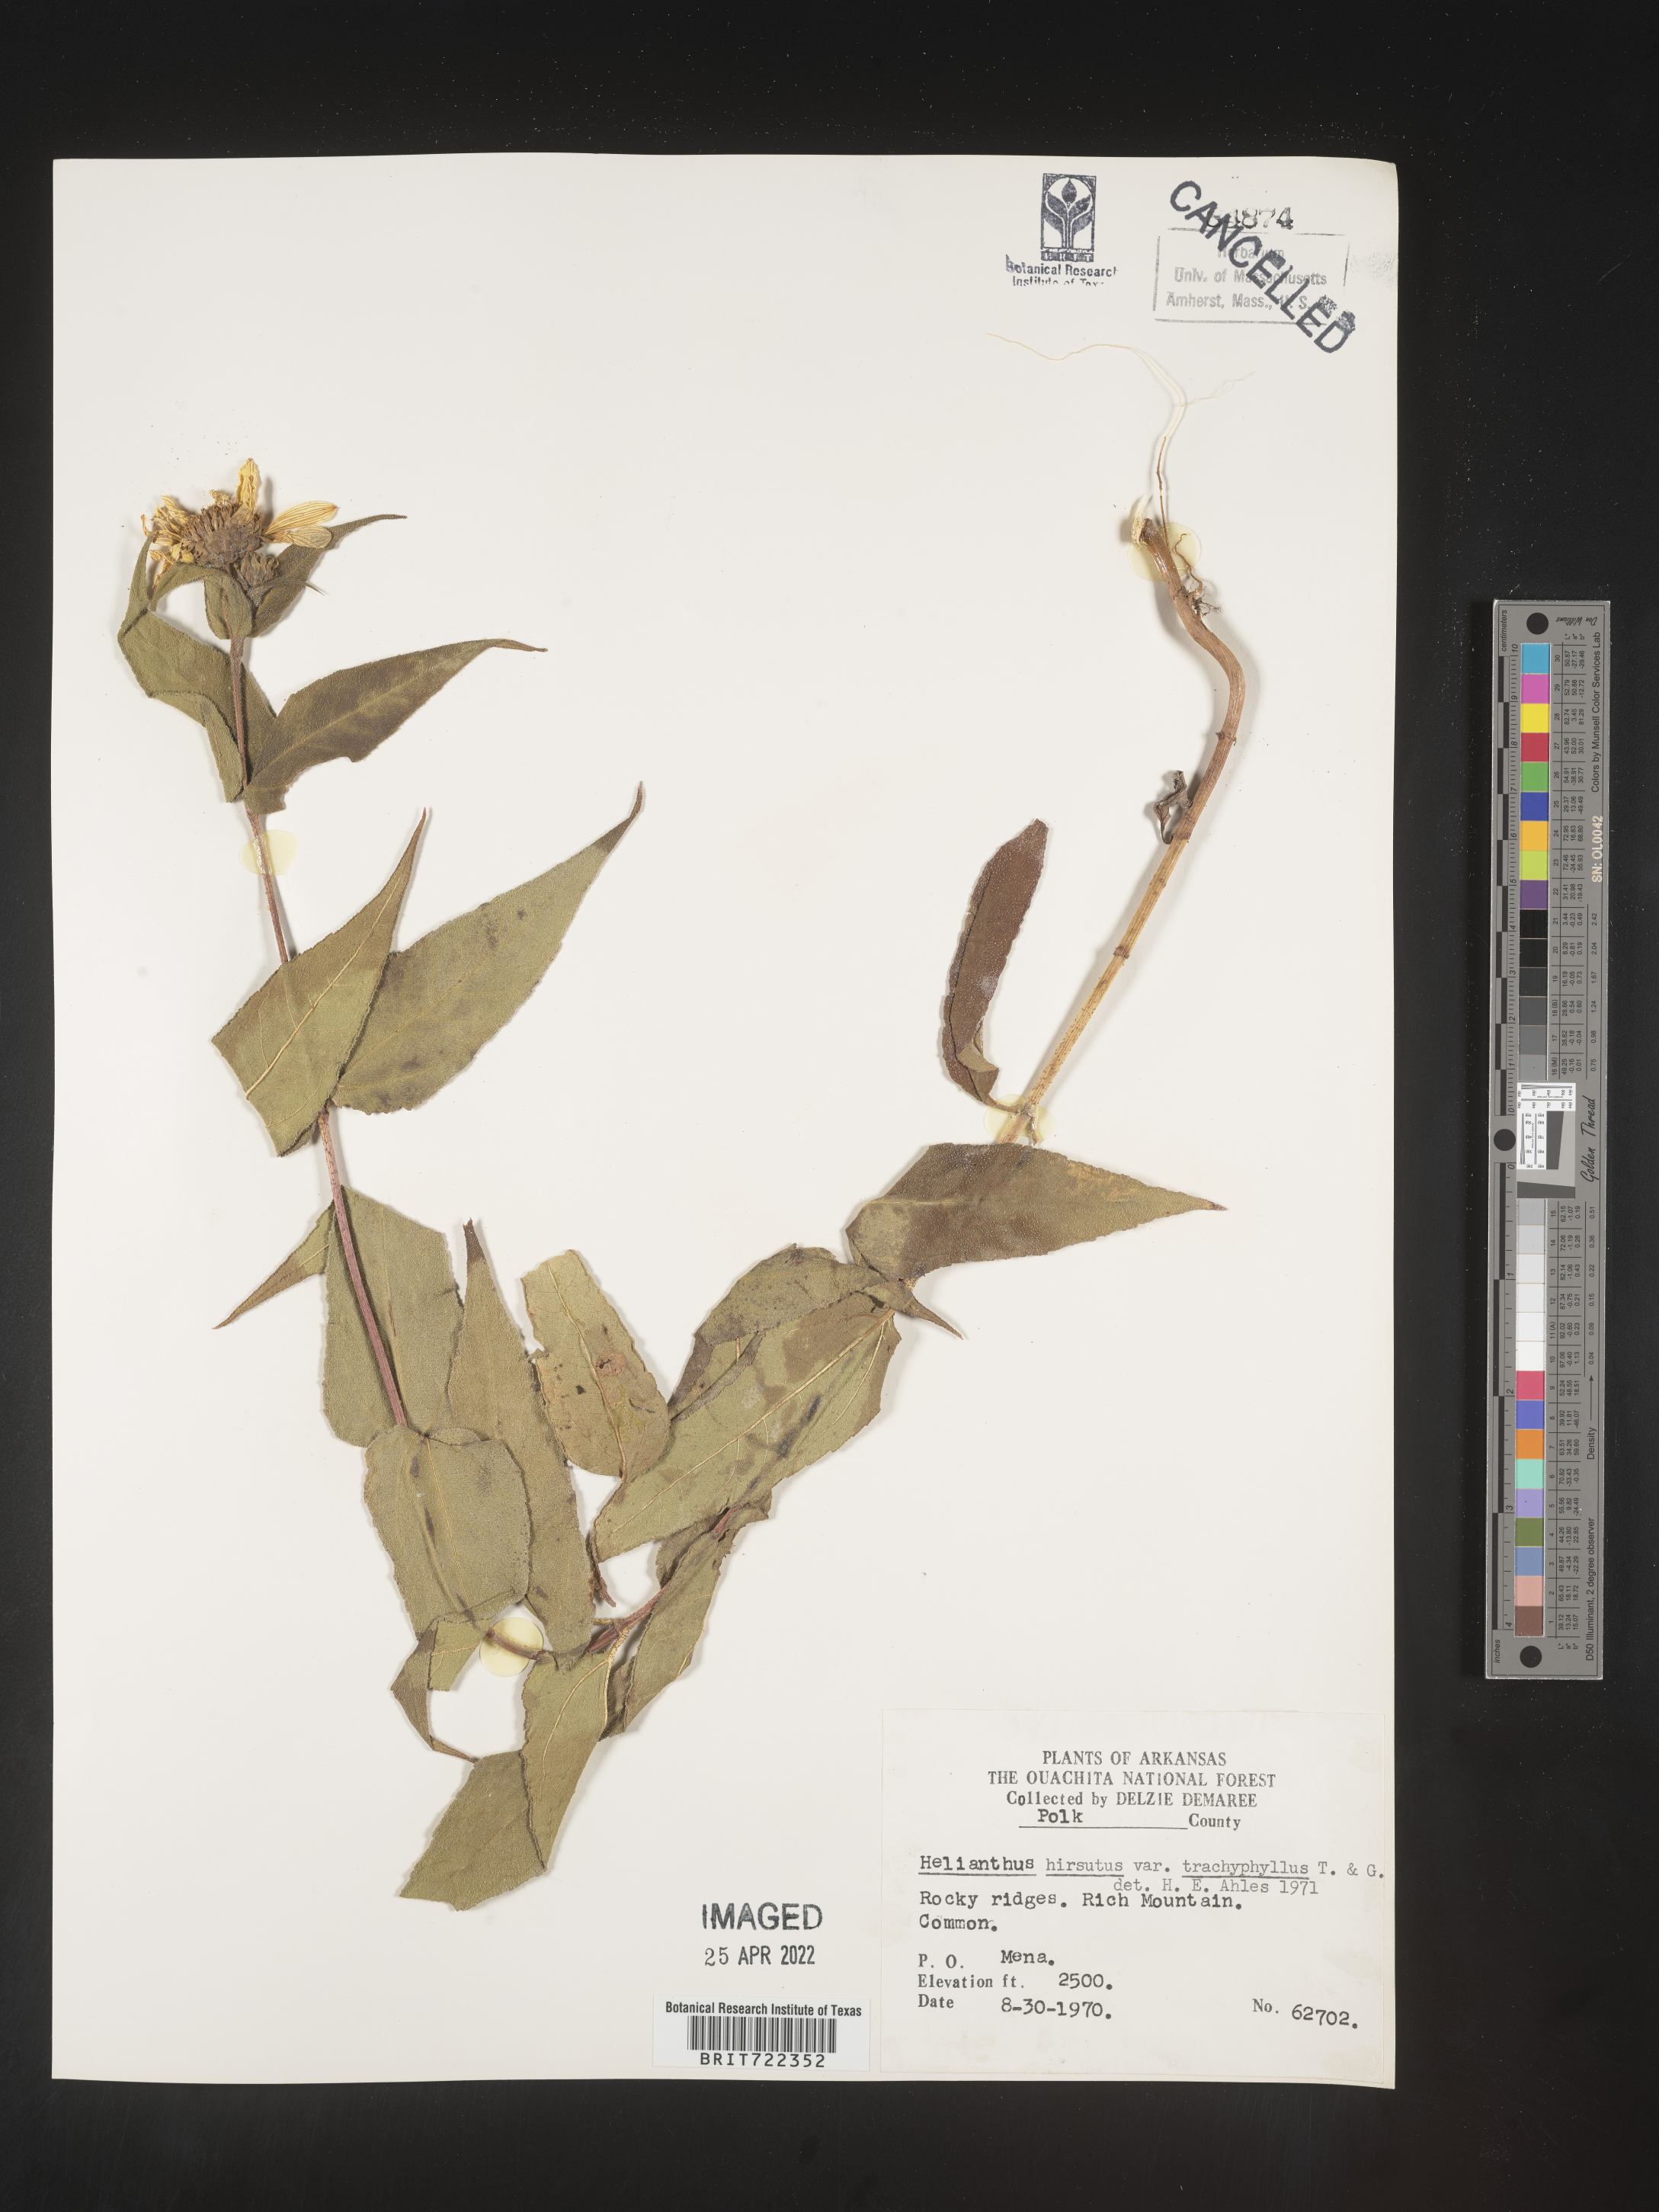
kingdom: Plantae
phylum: Tracheophyta
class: Magnoliopsida
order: Asterales
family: Asteraceae
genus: Helianthus
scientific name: Helianthus hirsutus
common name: Hairy sunflower
